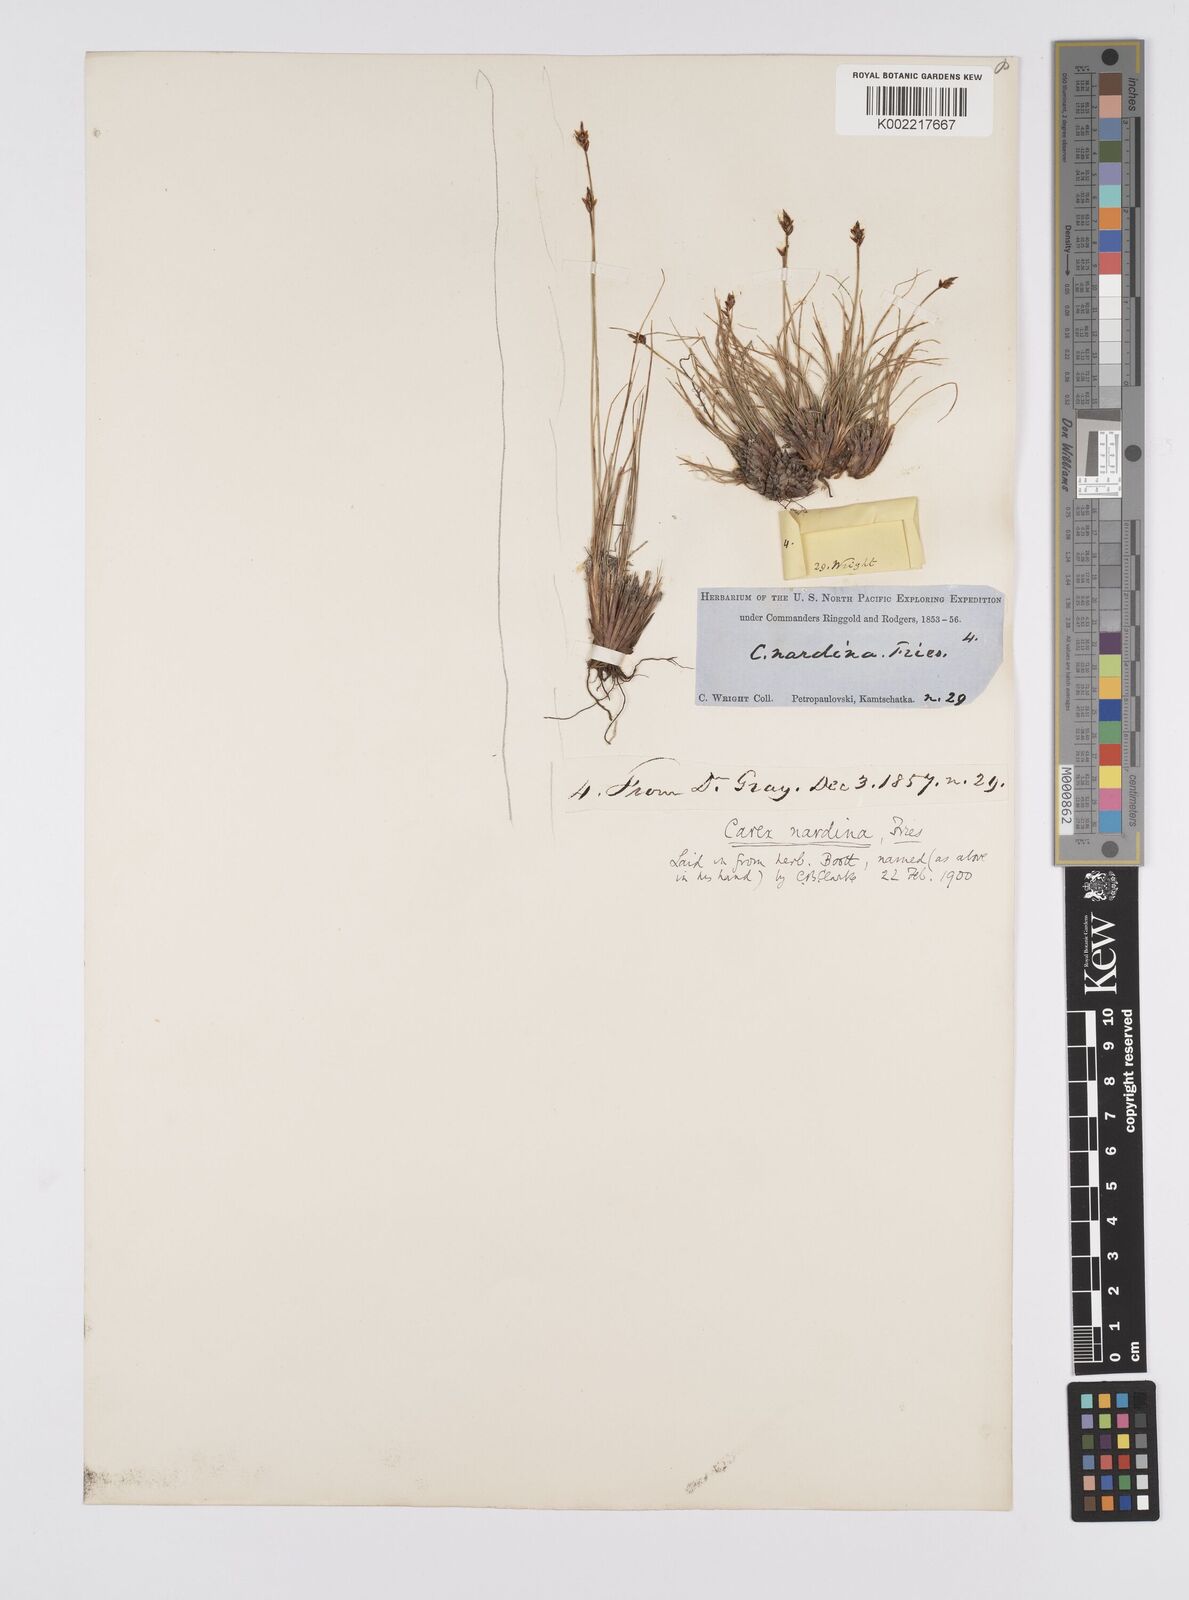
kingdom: Plantae
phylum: Tracheophyta
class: Liliopsida
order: Poales
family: Cyperaceae
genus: Carex
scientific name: Carex nardina
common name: Nard sedge
